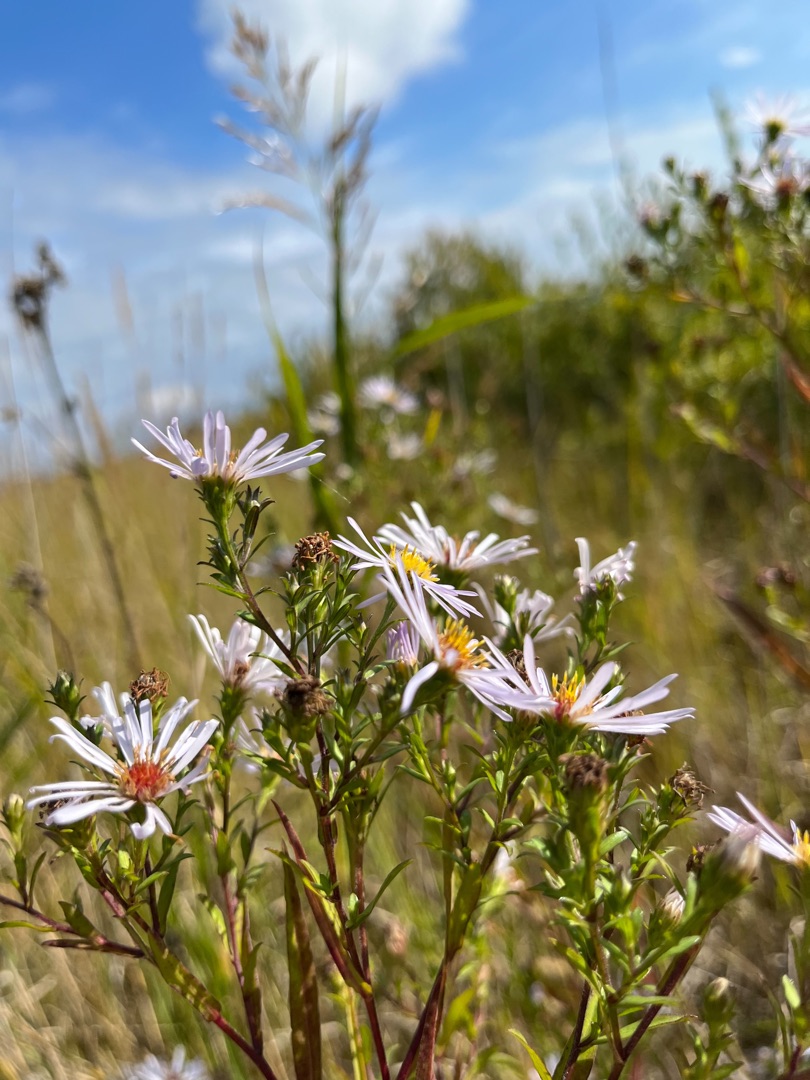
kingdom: Plantae
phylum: Tracheophyta
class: Magnoliopsida
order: Asterales
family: Asteraceae
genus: Symphyotrichum
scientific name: Symphyotrichum versicolor
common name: Broget asters
